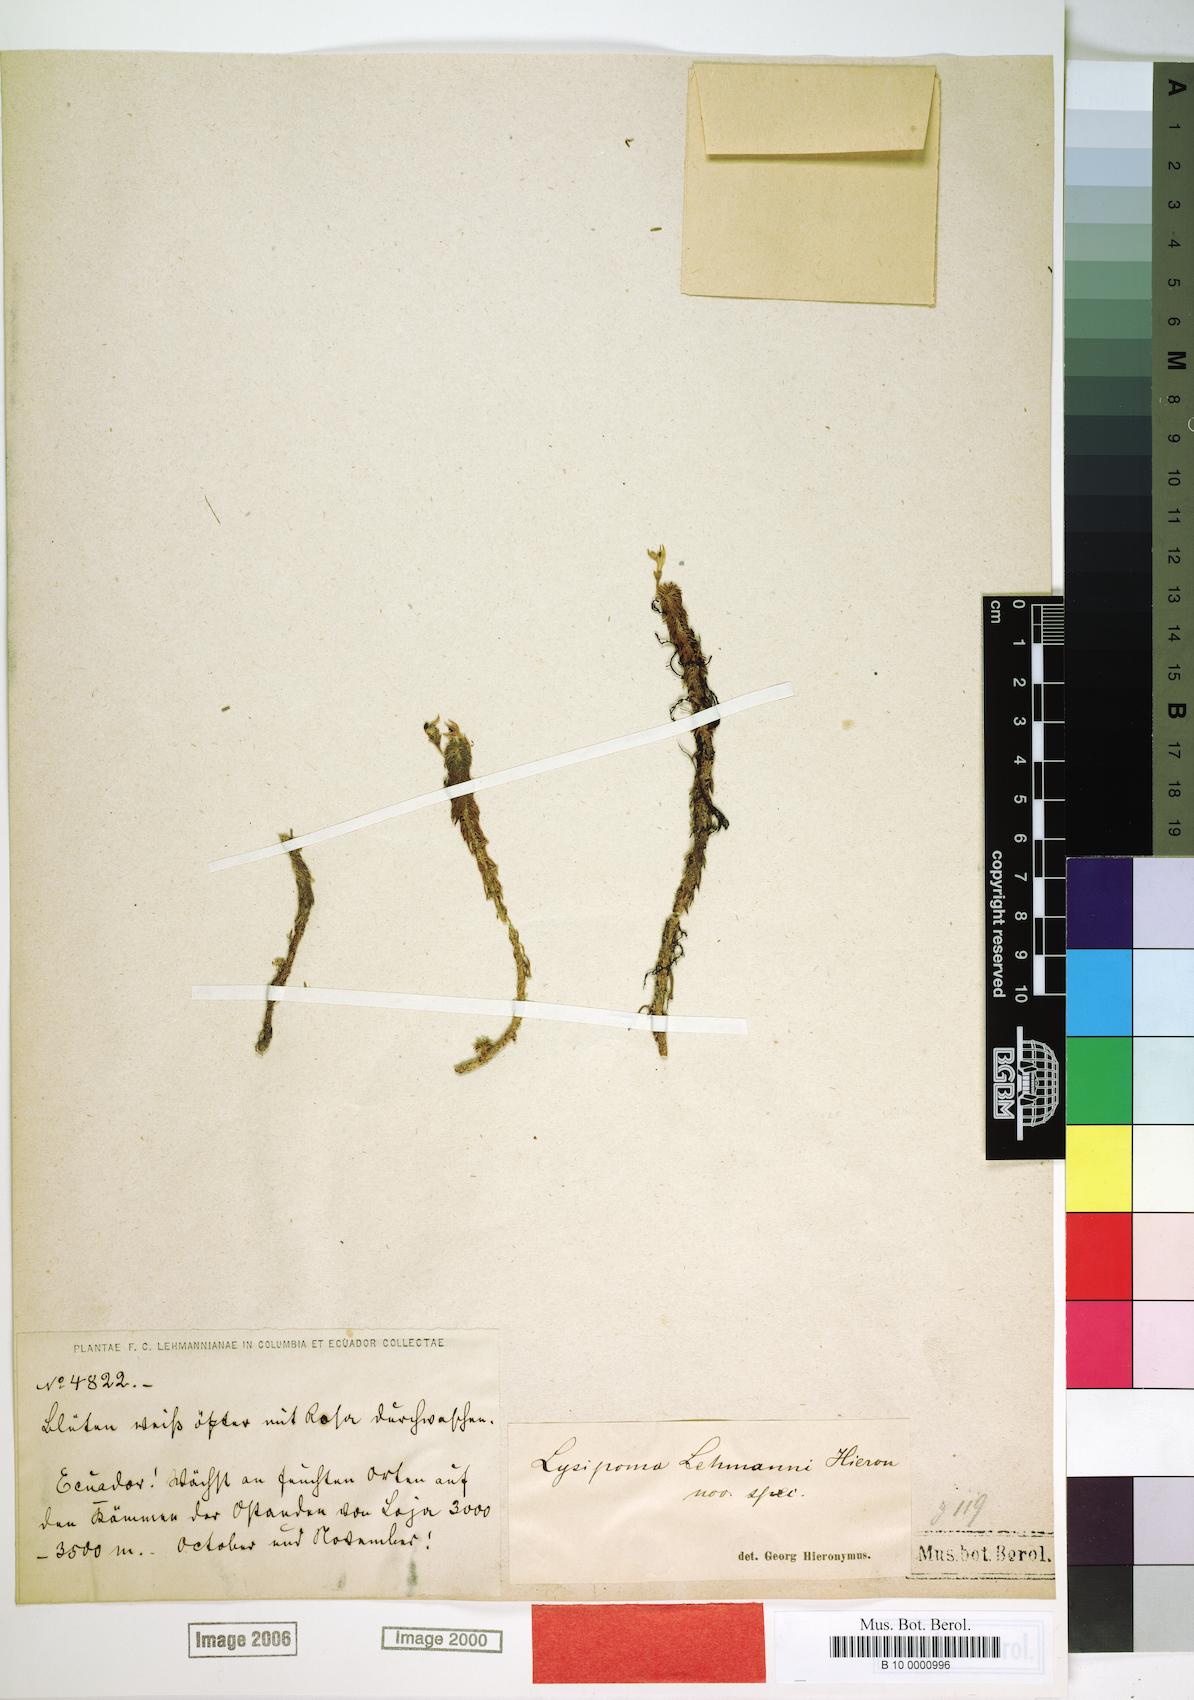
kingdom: Plantae
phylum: Tracheophyta
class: Magnoliopsida
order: Asterales
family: Campanulaceae
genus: Lysipomia
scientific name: Lysipomia lehmannii
